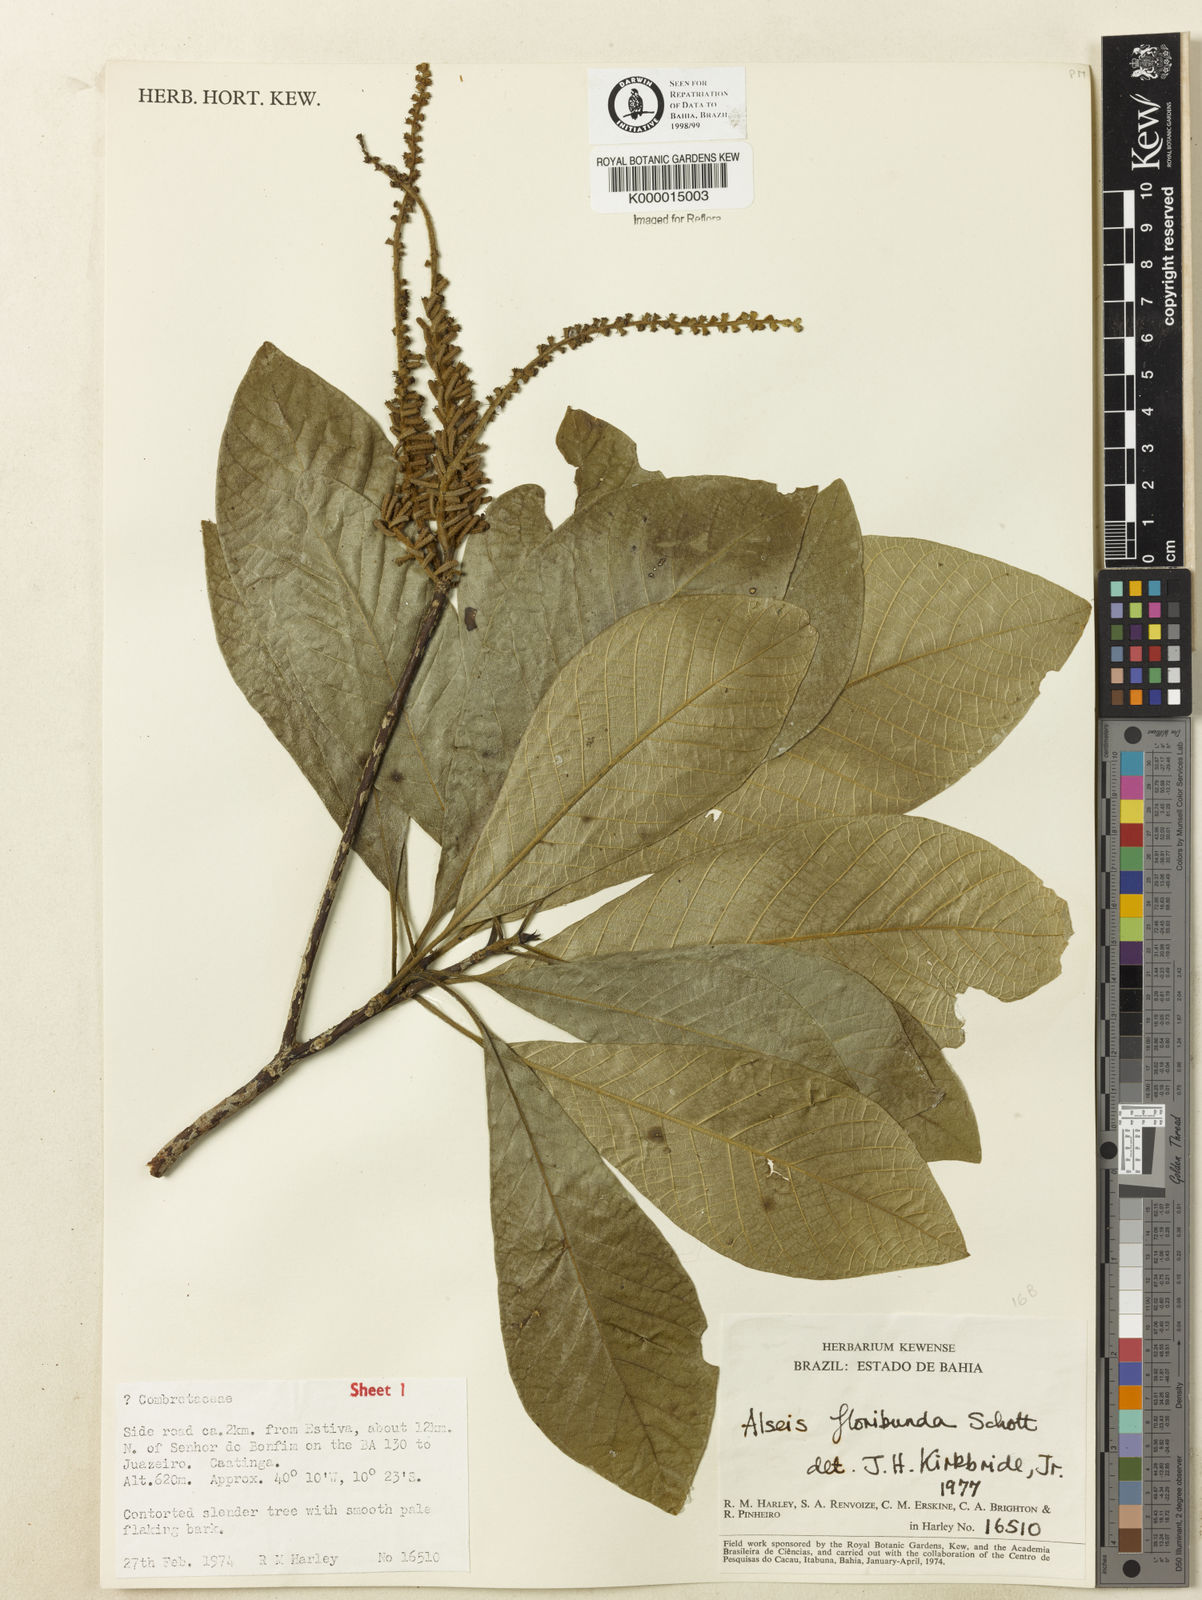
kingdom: Plantae
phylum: Tracheophyta
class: Magnoliopsida
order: Gentianales
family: Rubiaceae
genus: Alseis
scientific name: Alseis floribunda
